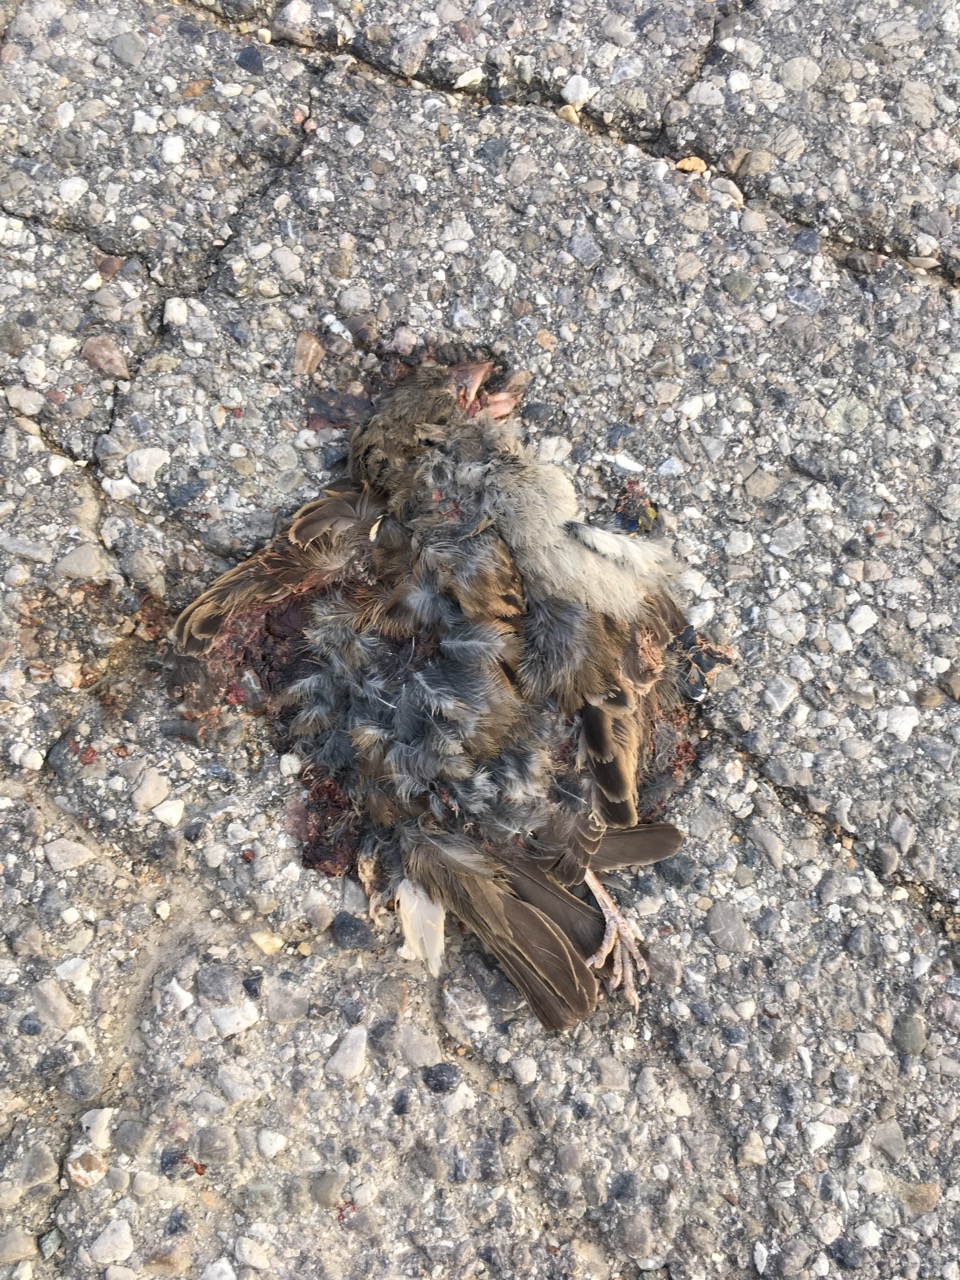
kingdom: Animalia
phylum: Chordata
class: Aves
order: Passeriformes
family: Passeridae
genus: Passer
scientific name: Passer domesticus
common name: House sparrow
